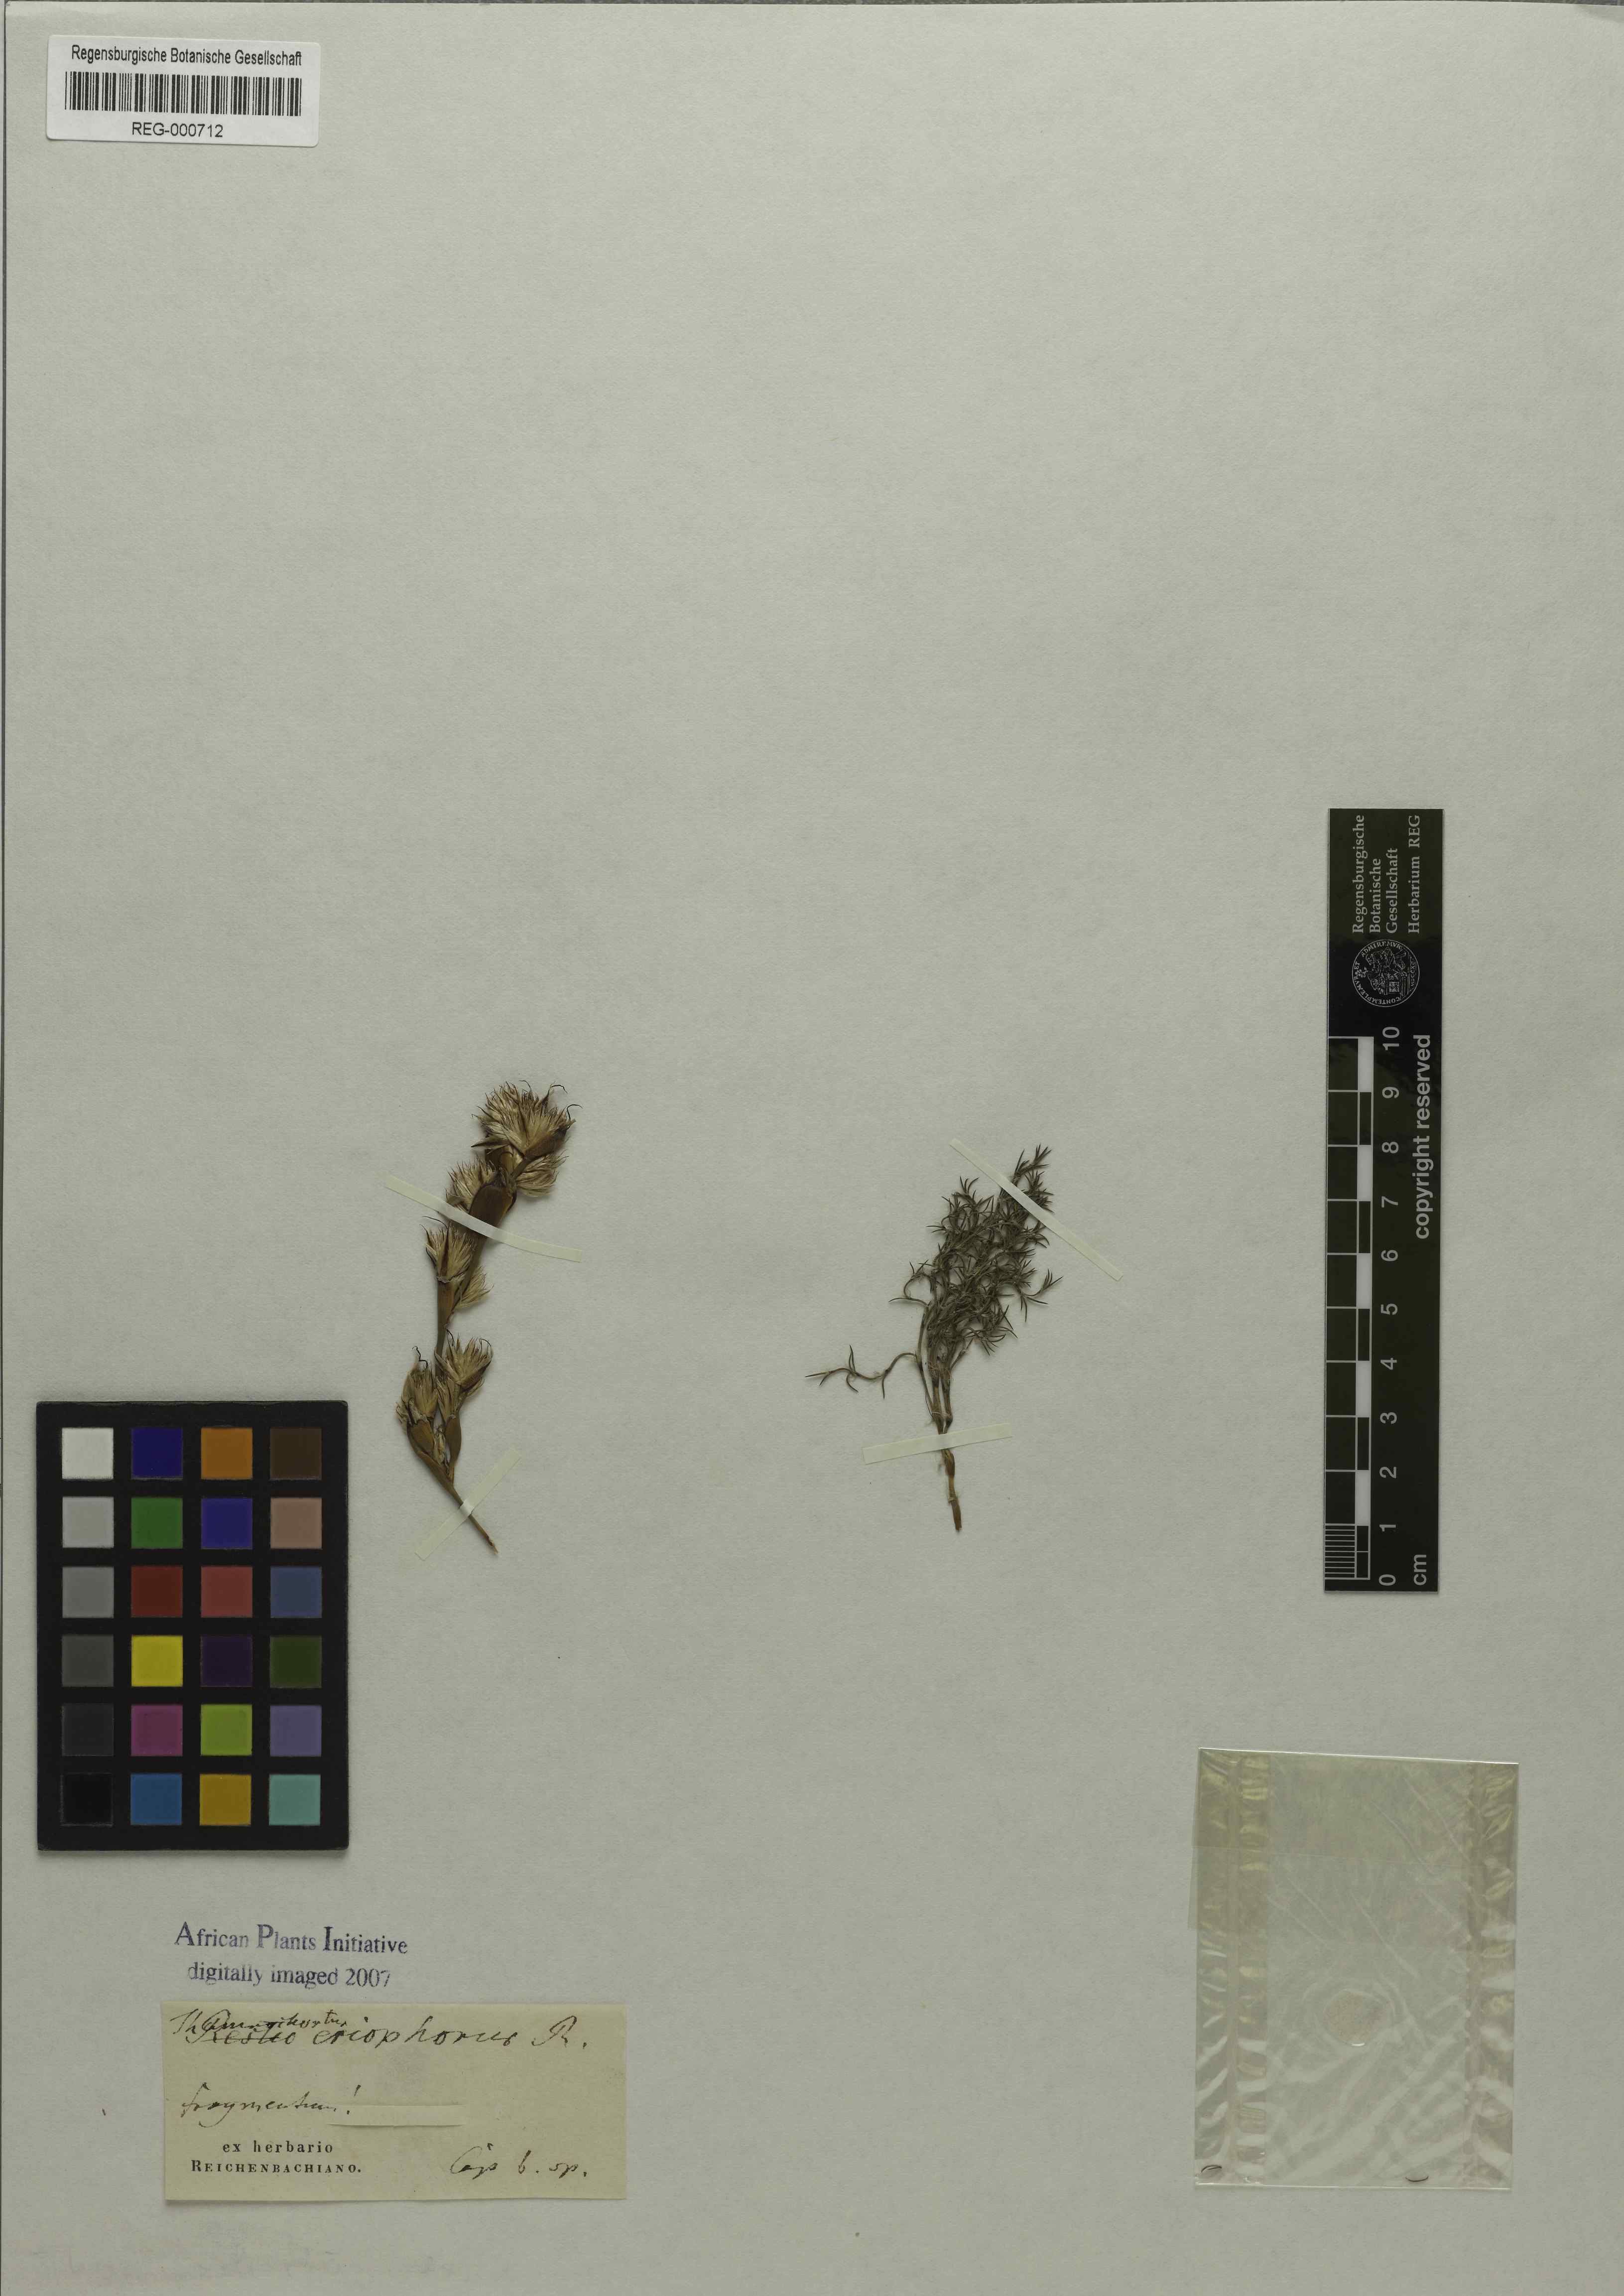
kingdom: Plantae
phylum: Tracheophyta
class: Liliopsida
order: Poales
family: Restionaceae
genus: Thamnochortus
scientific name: Thamnochortus fruticosus
